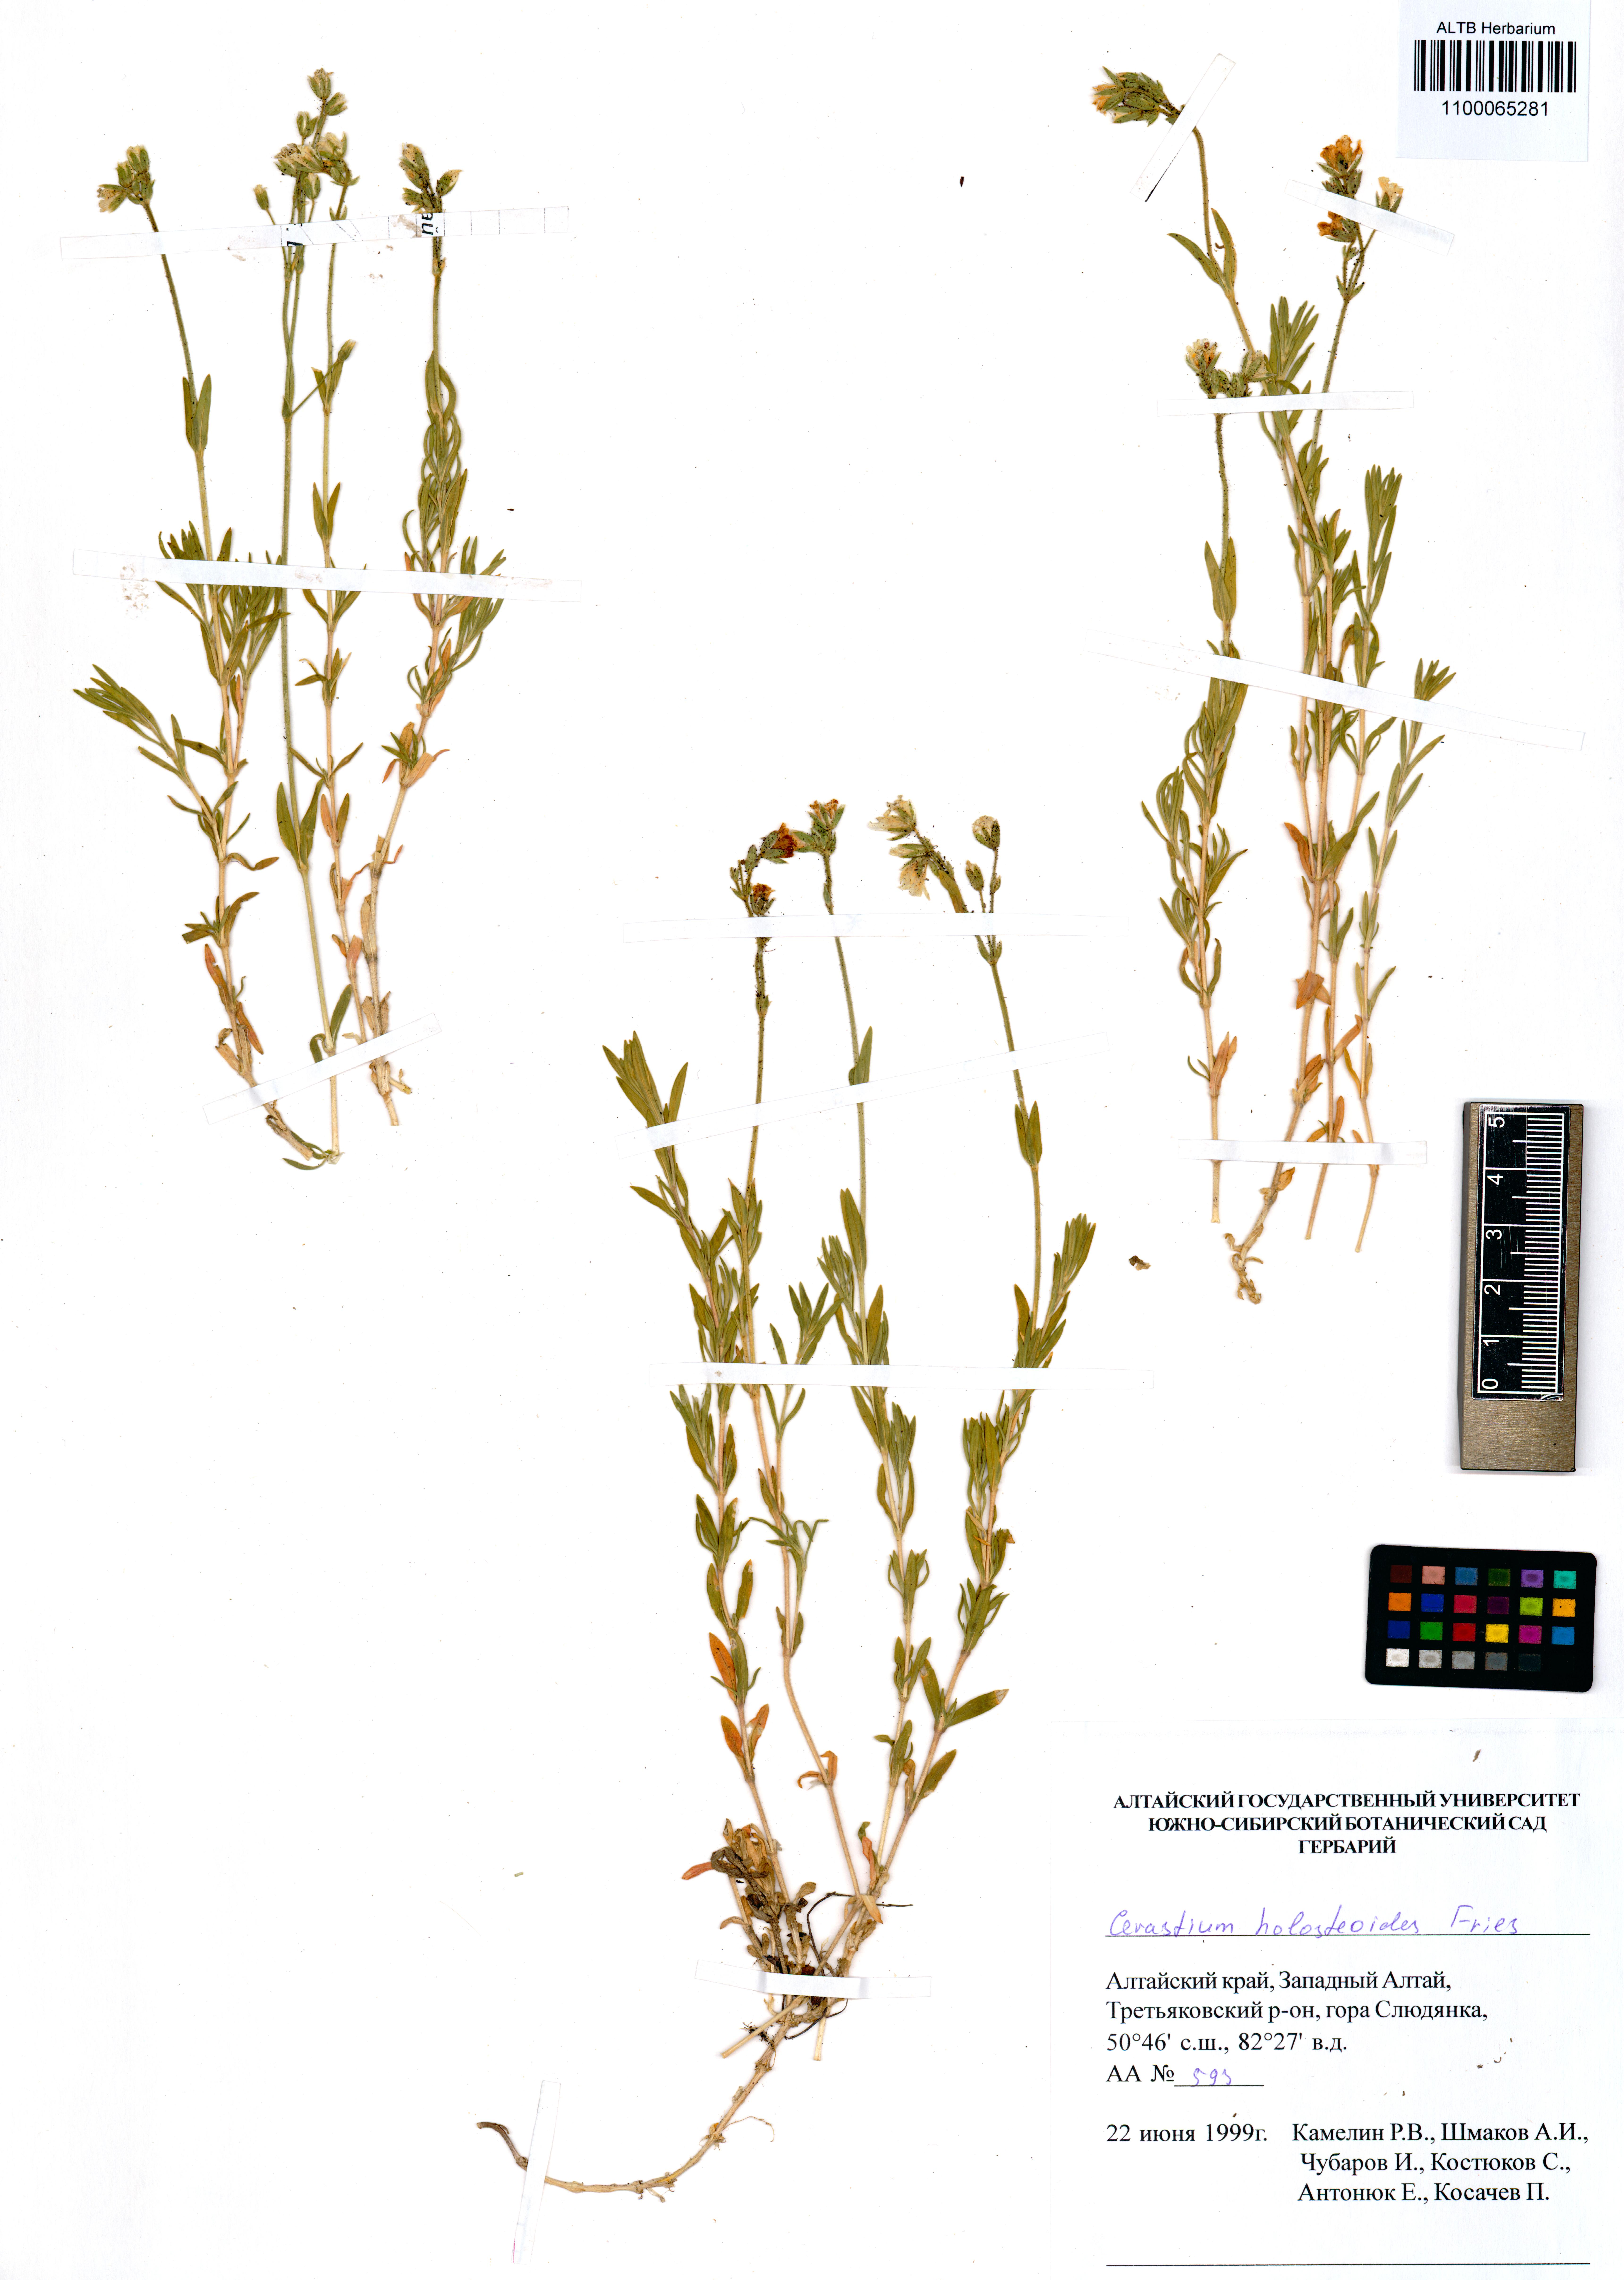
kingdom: Plantae
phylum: Tracheophyta
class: Magnoliopsida
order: Caryophyllales
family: Caryophyllaceae
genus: Cerastium
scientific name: Cerastium holosteoides
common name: Big chickweed
